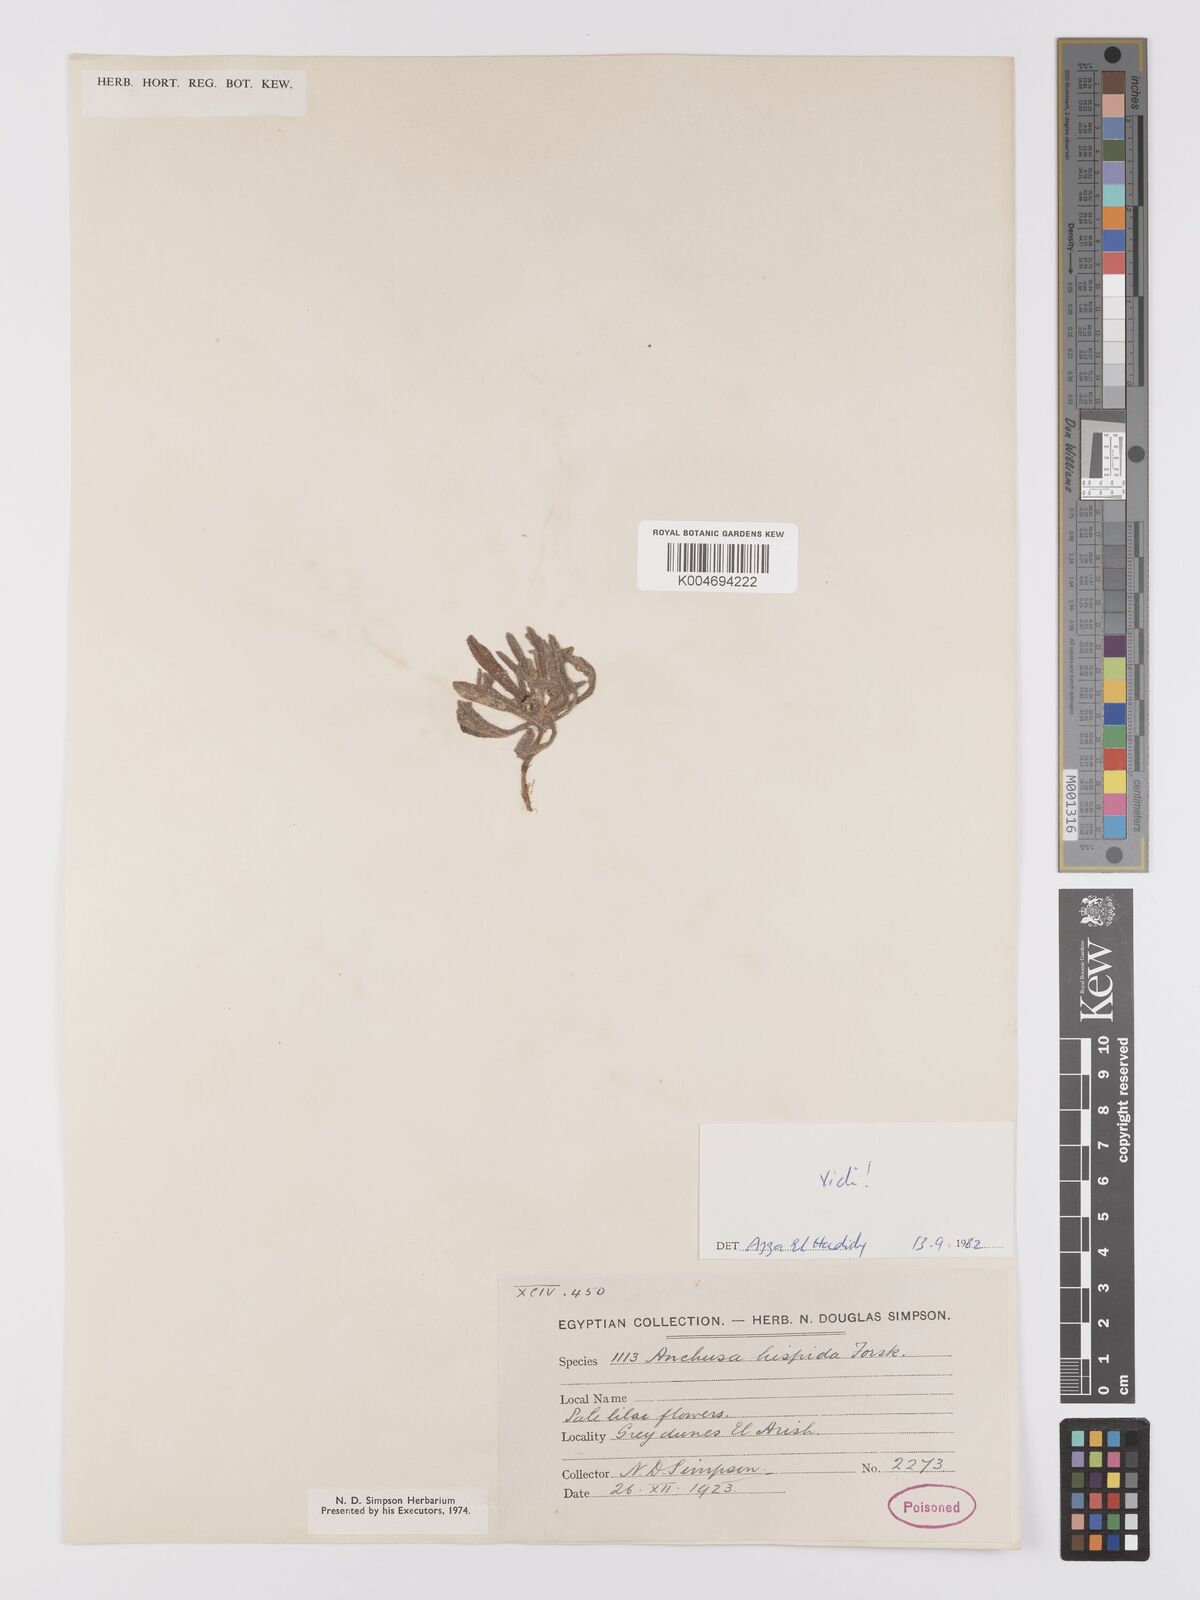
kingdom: Plantae
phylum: Tracheophyta
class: Magnoliopsida
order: Boraginales
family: Boraginaceae
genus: Gastrocotyle
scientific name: Gastrocotyle hispida
